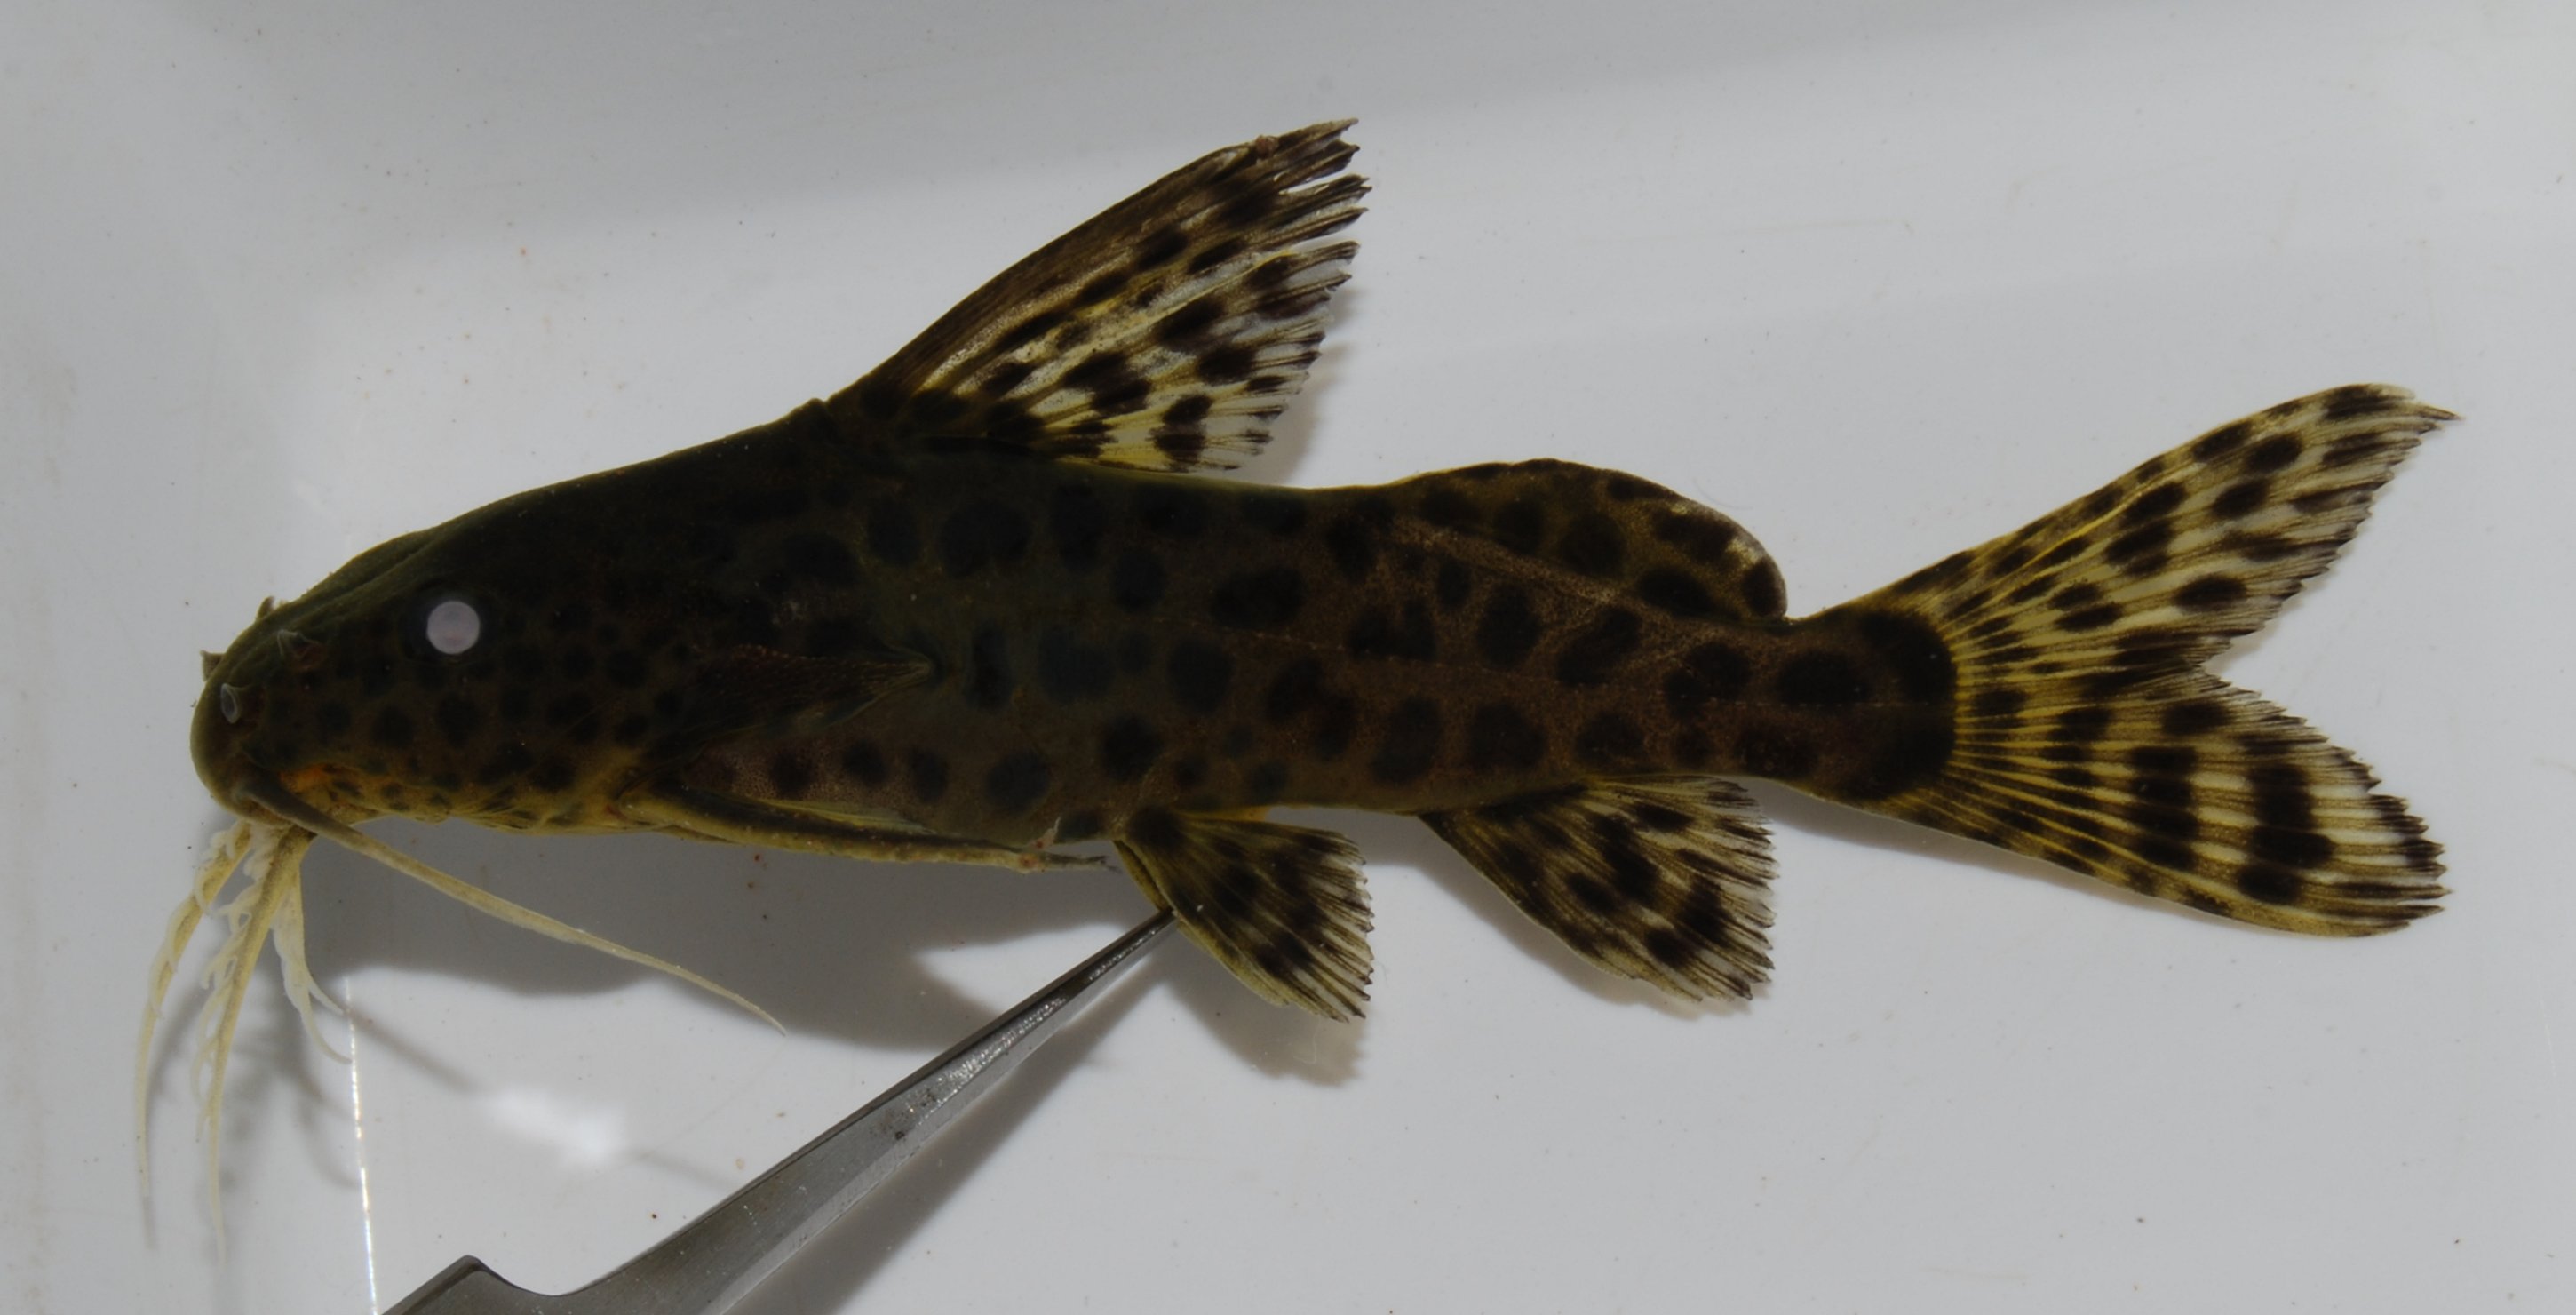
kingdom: Animalia
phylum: Chordata
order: Siluriformes
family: Mochokidae
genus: Synodontis
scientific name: Synodontis nigromaculatus
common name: Blackspotted squeaker
